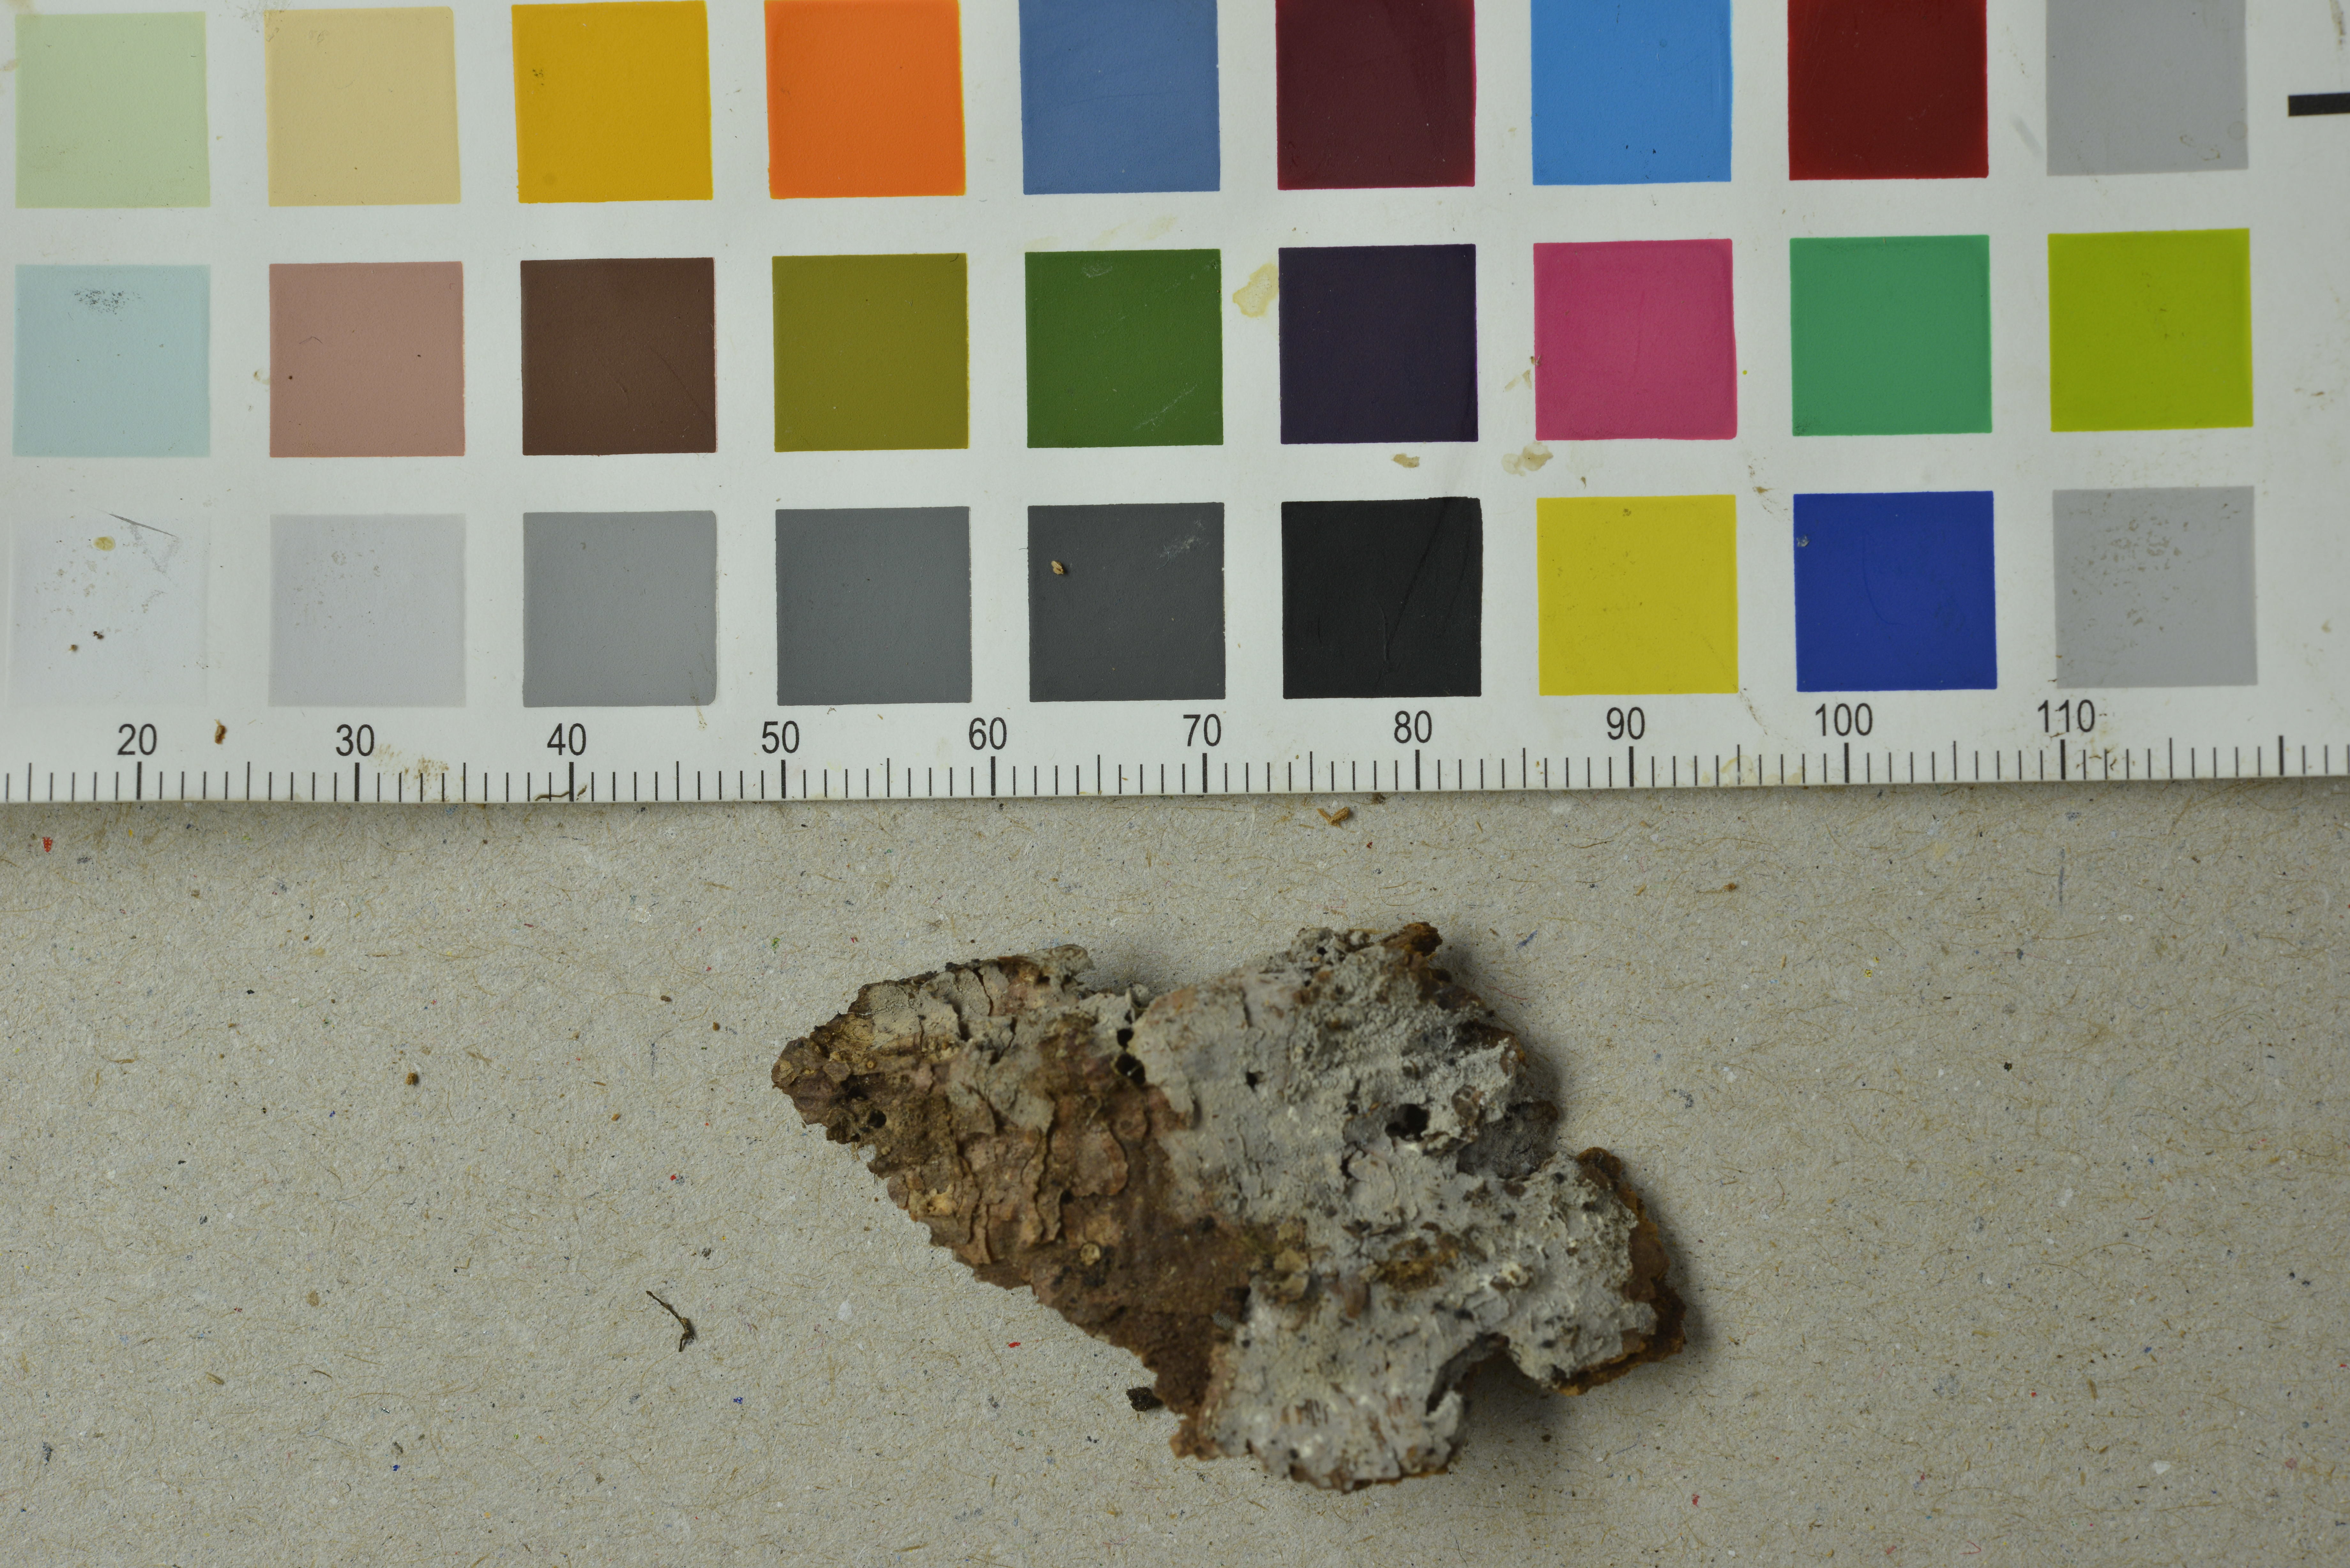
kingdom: Fungi
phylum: Basidiomycota
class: Agaricomycetes
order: Trechisporales
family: Sistotremataceae
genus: Trechispora
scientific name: Trechispora minima
